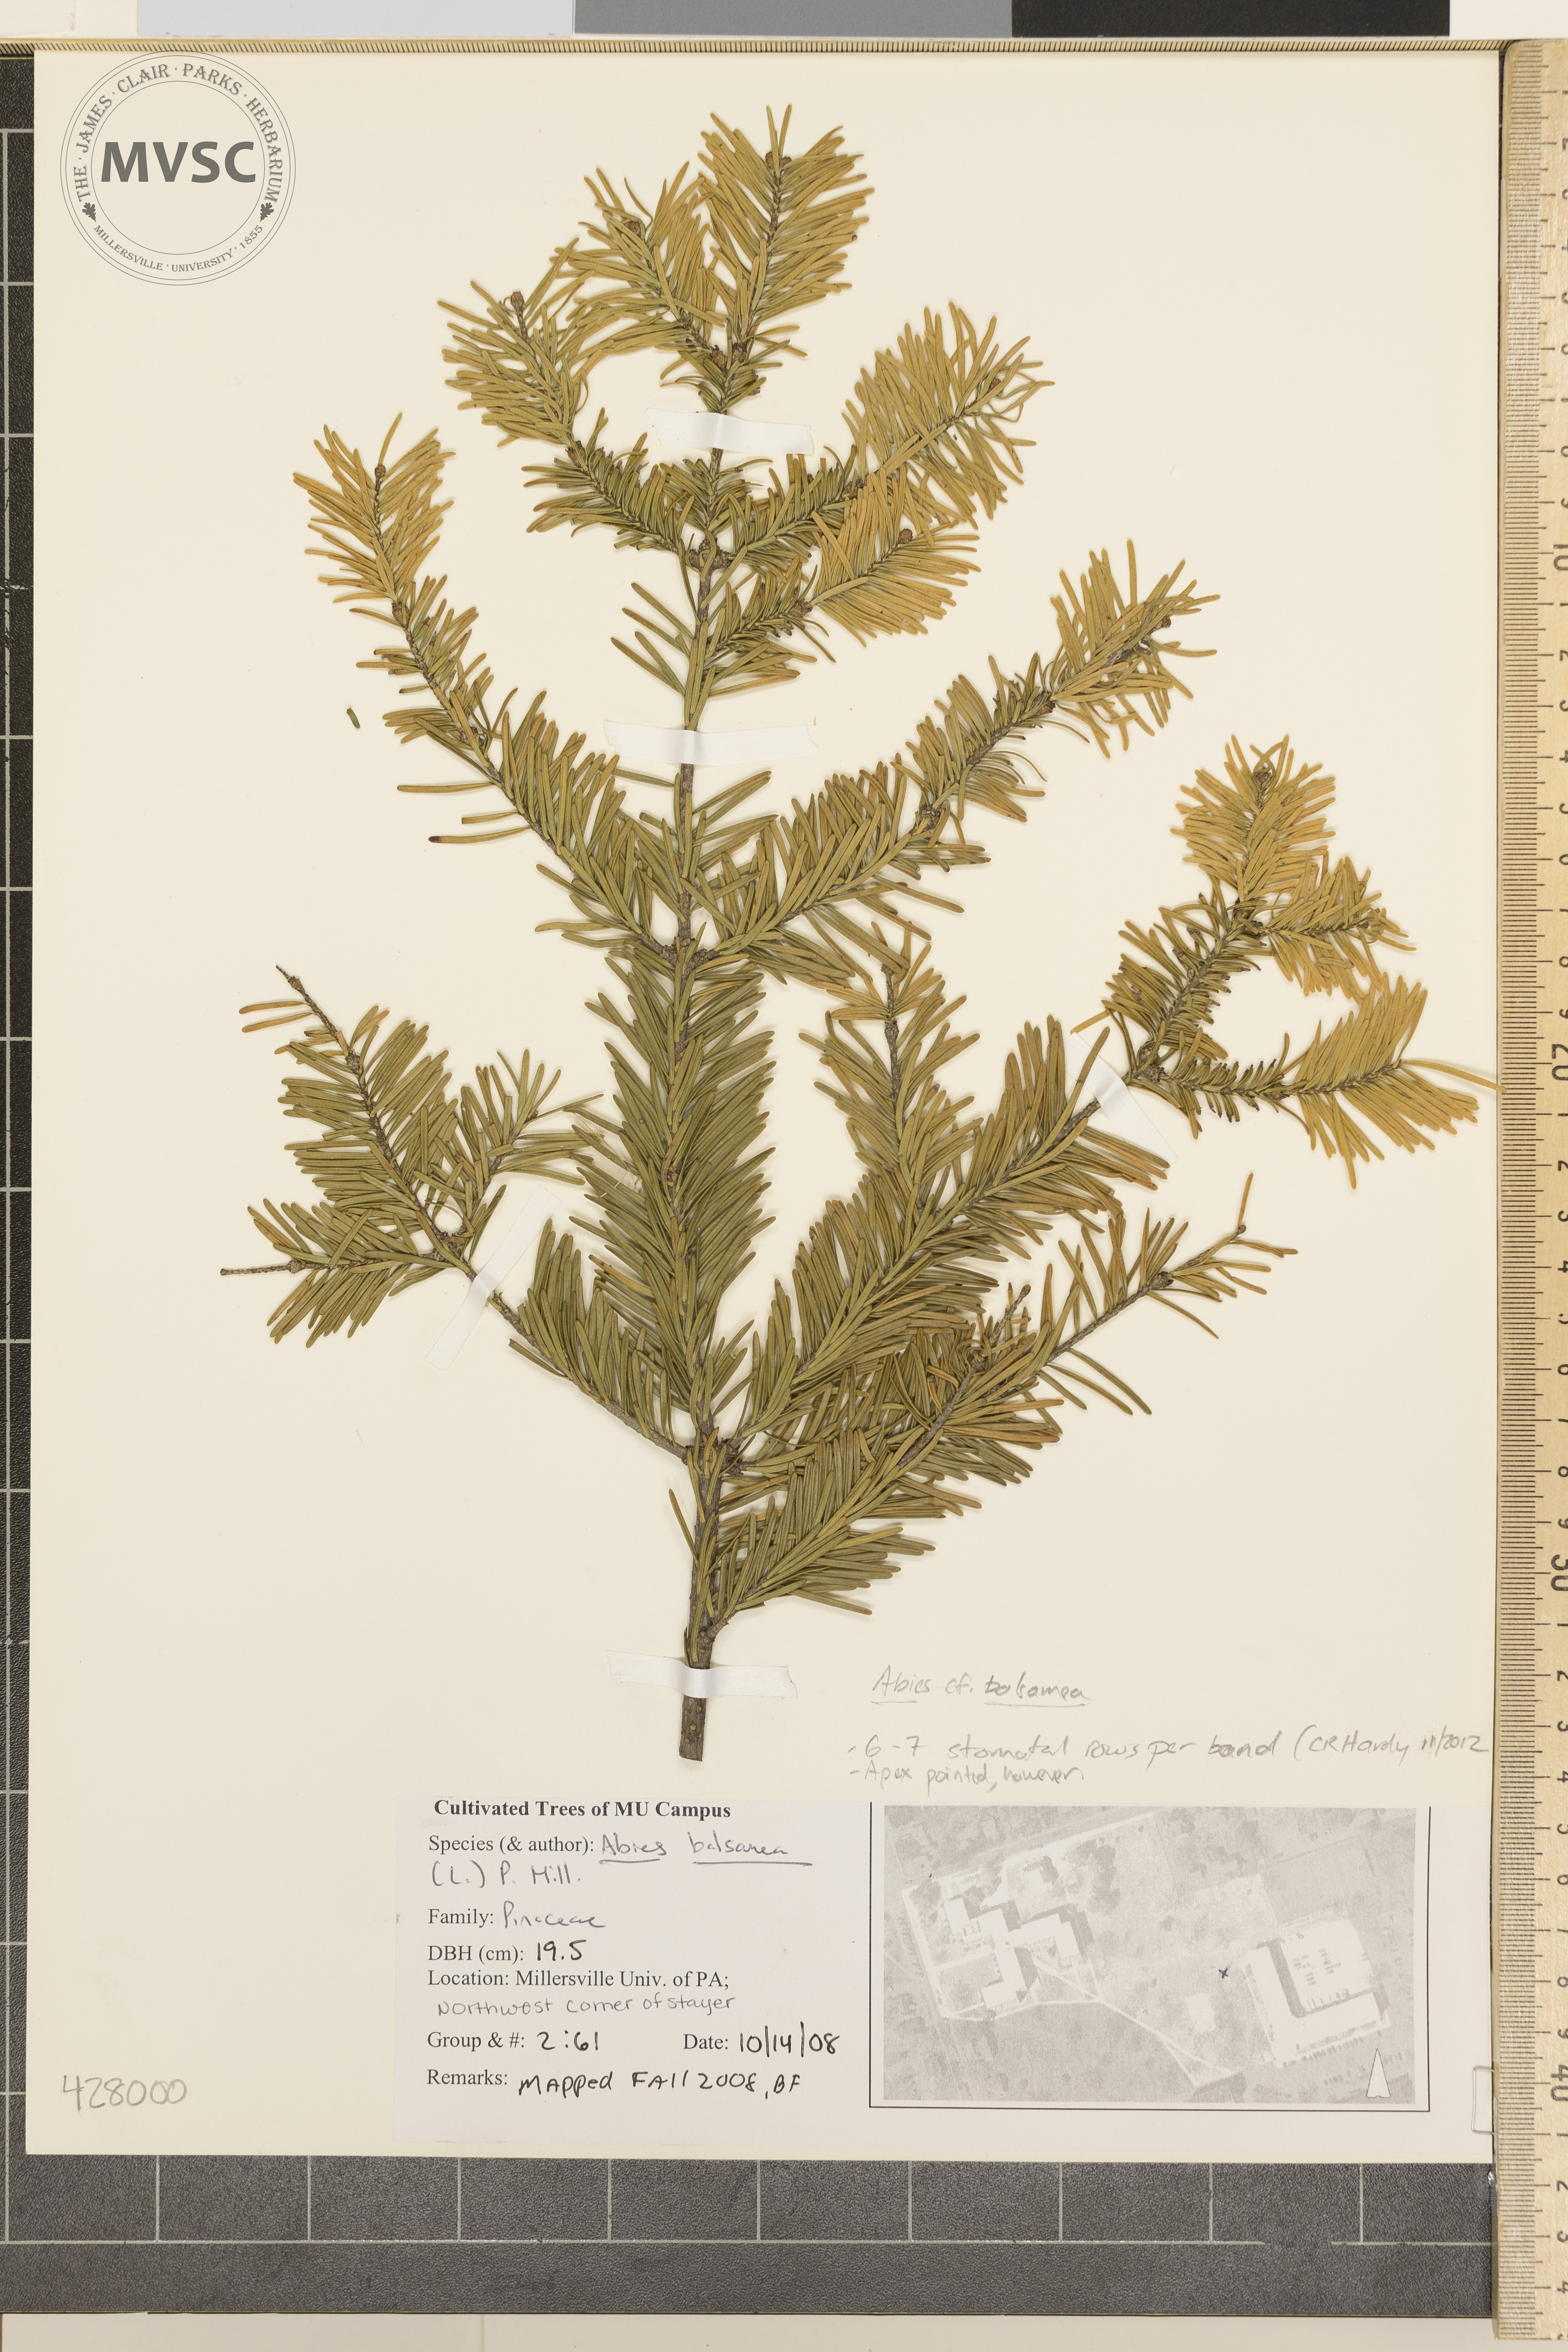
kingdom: Plantae
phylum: Tracheophyta
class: Pinopsida
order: Pinales
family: Pinaceae
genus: Abies
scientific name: Abies balsamea
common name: Balsam Fir
